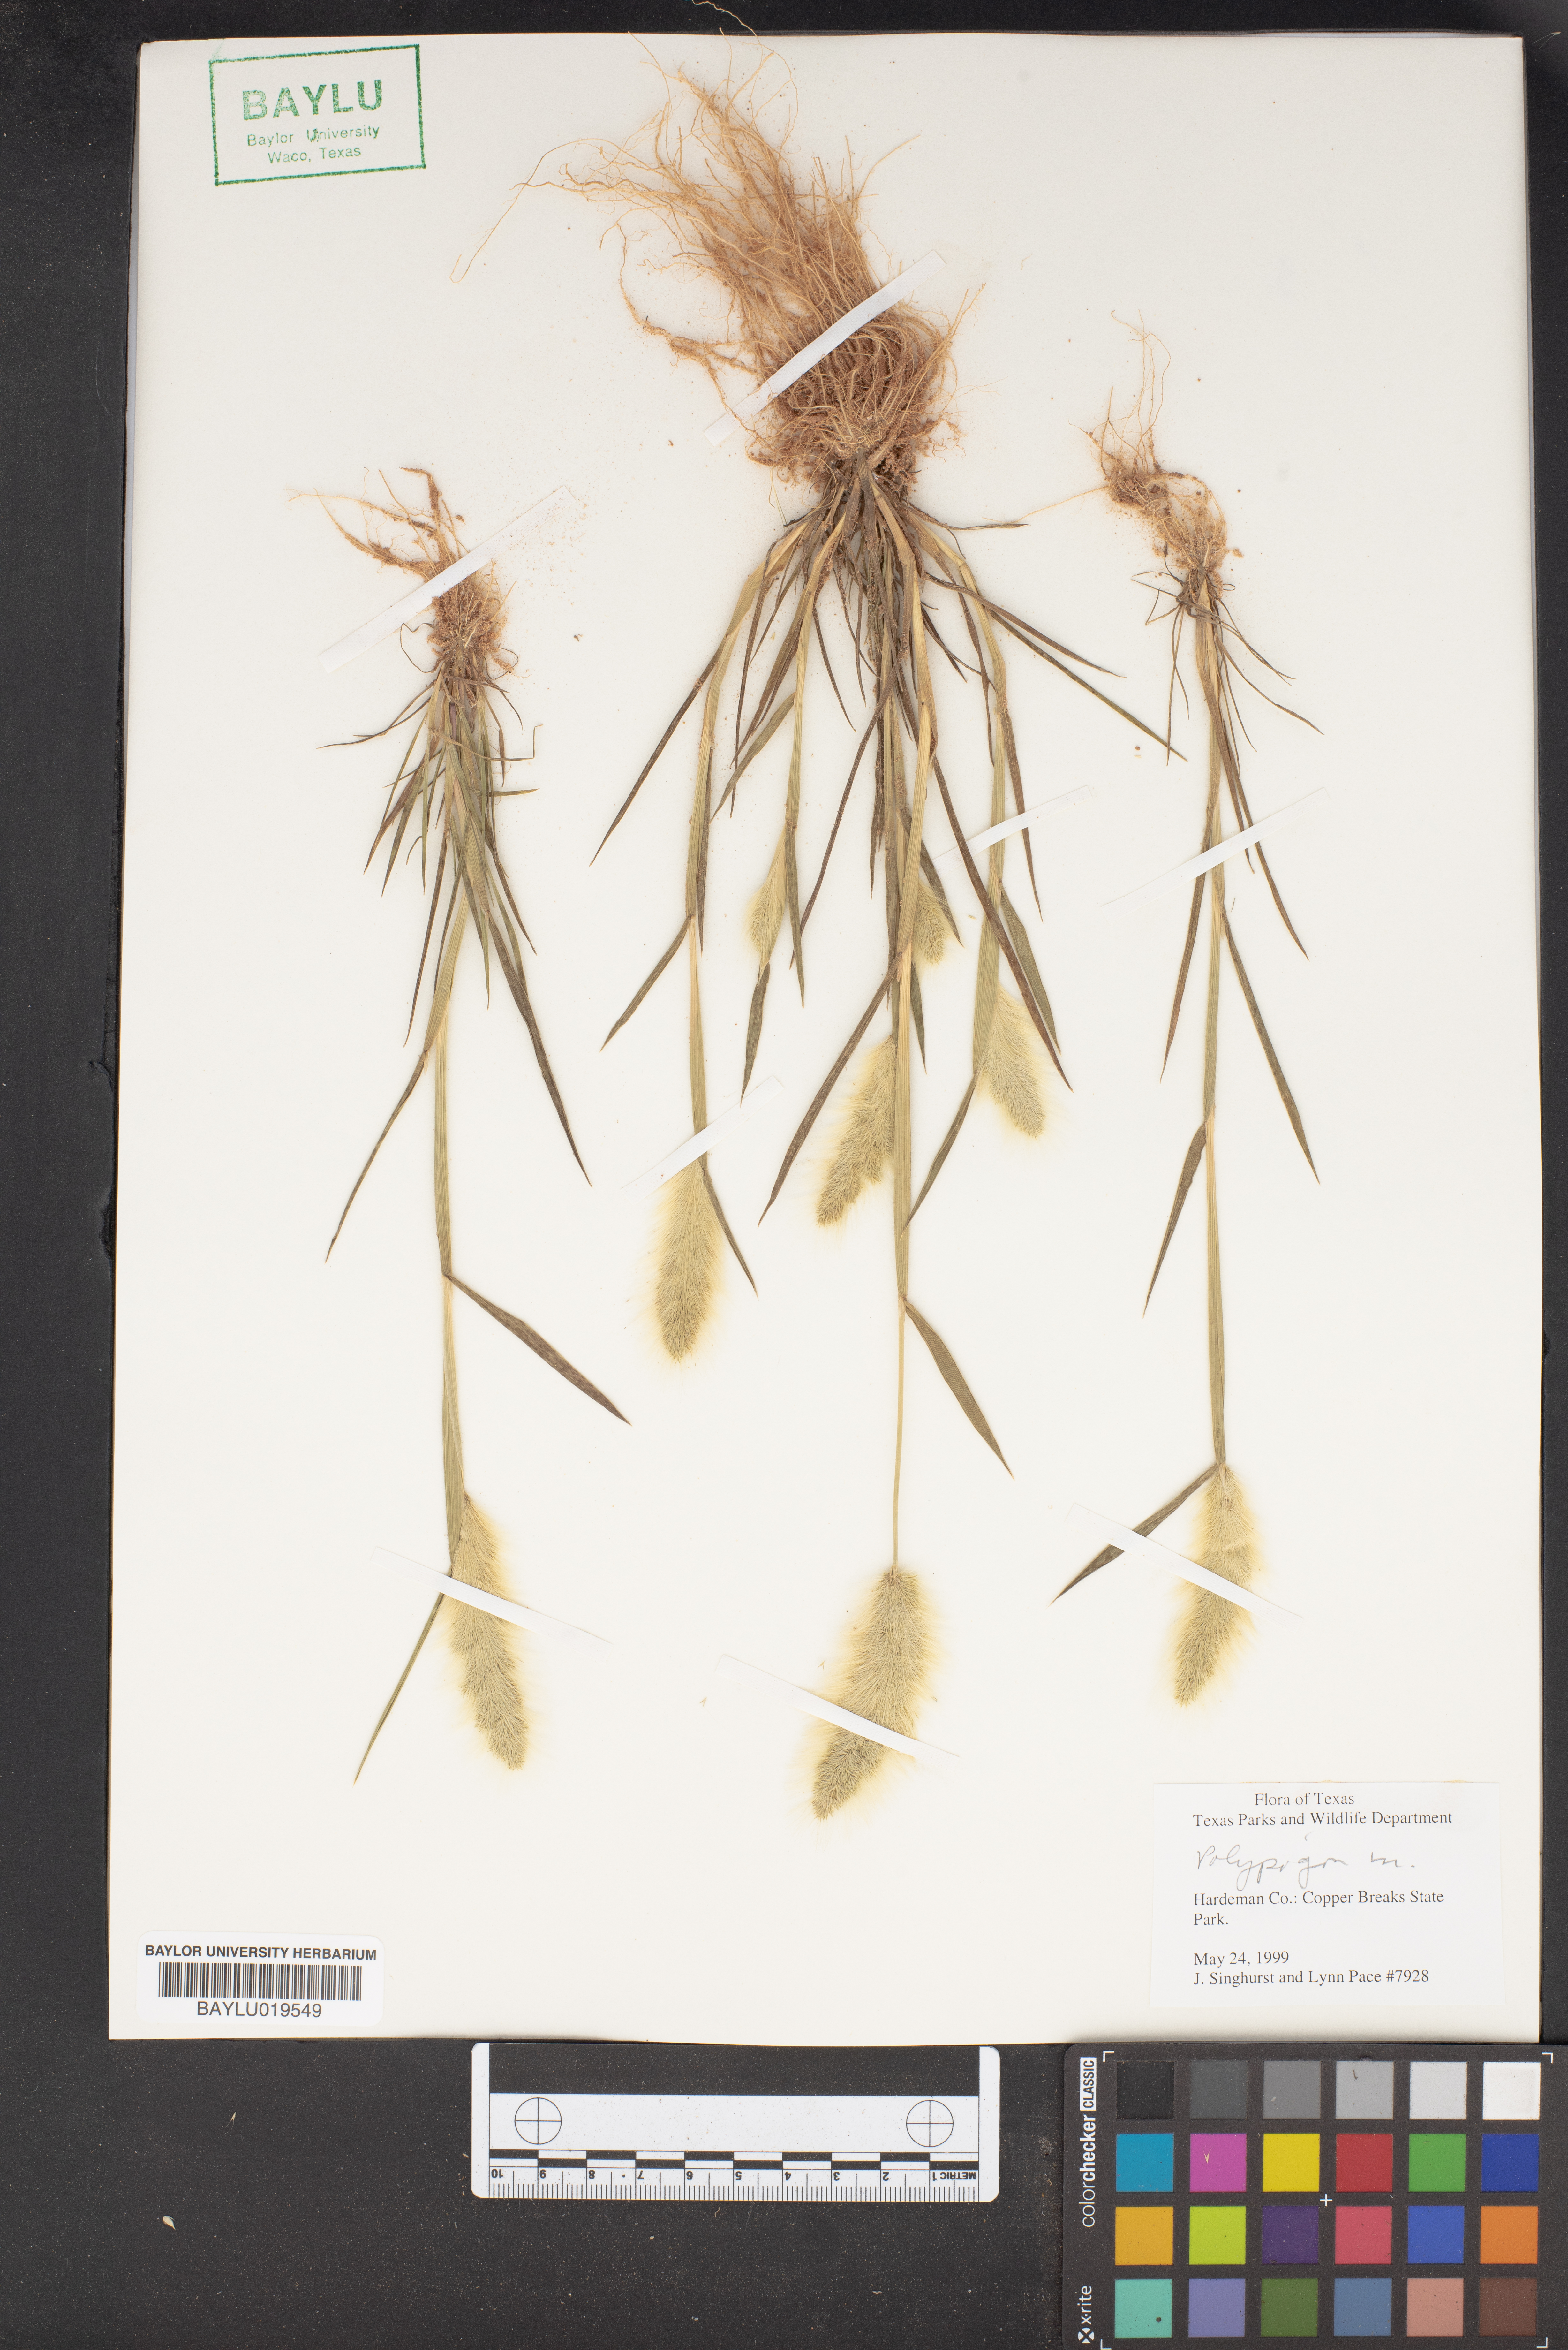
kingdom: Plantae
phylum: Tracheophyta
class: Liliopsida
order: Poales
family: Poaceae
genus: Polypogon
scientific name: Polypogon
